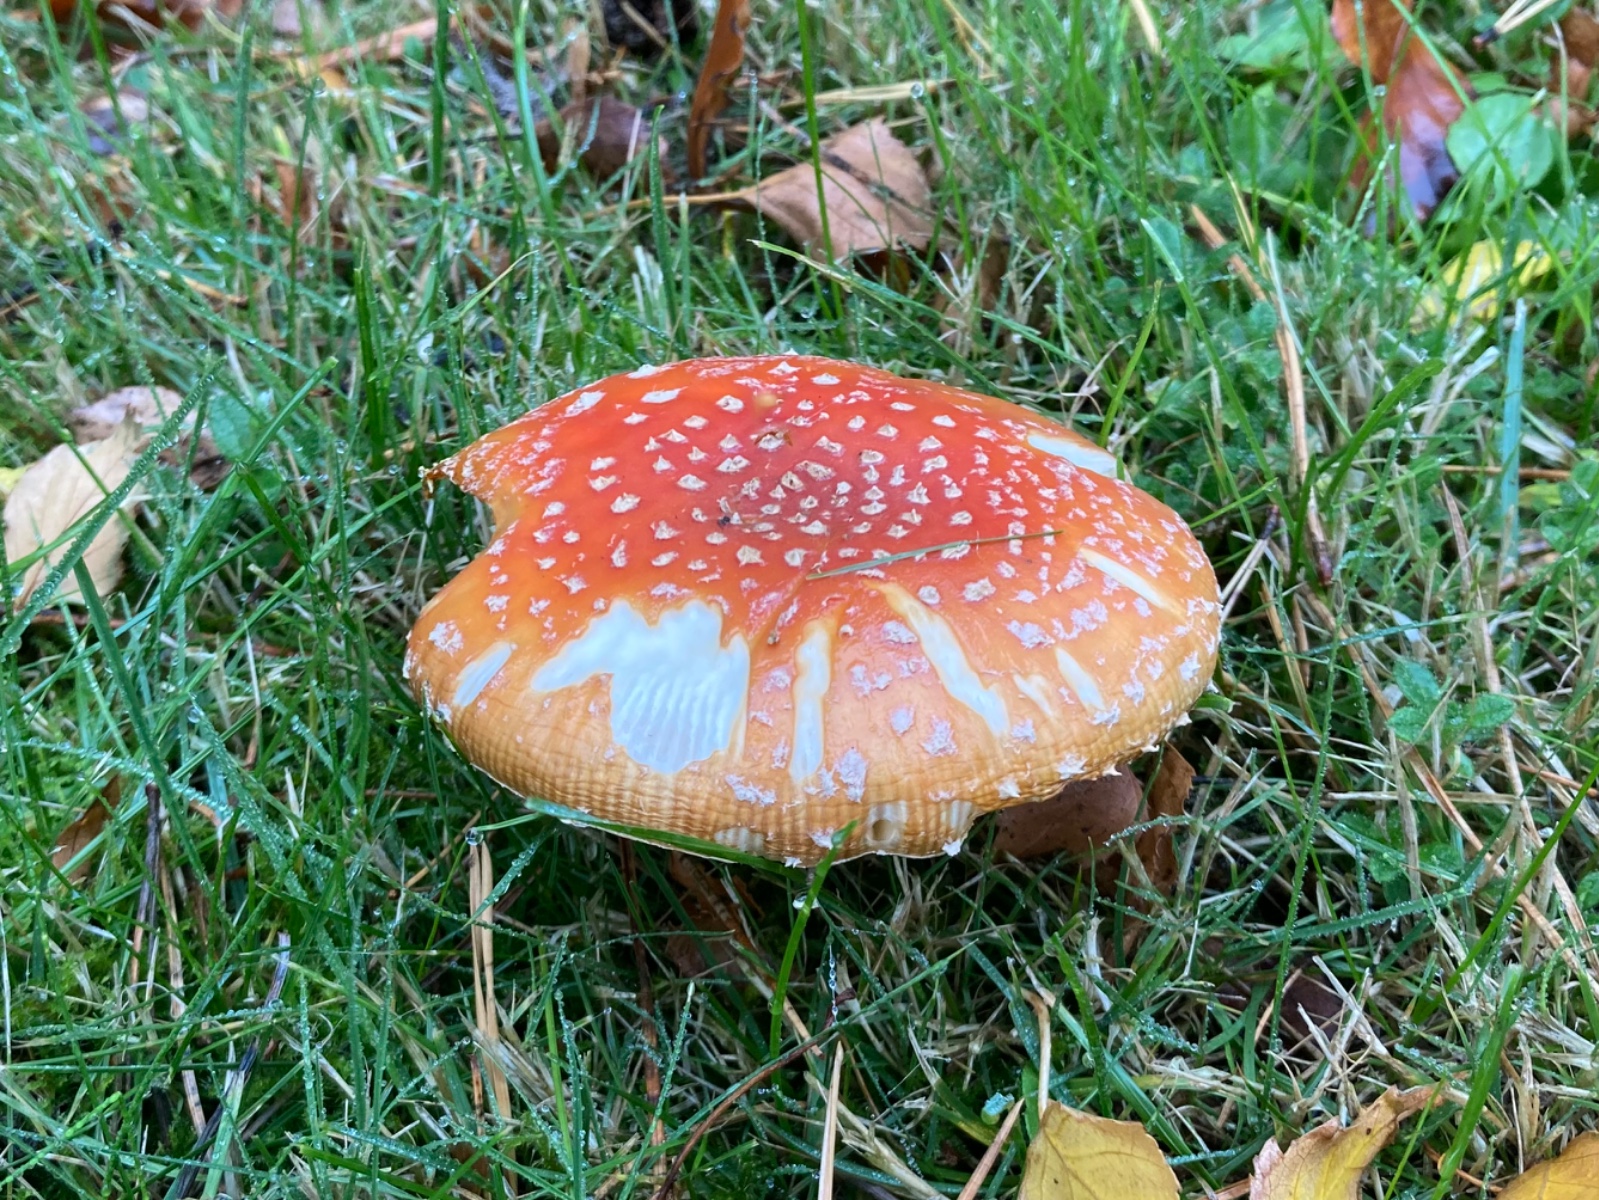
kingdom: Fungi
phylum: Basidiomycota
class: Agaricomycetes
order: Agaricales
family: Amanitaceae
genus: Amanita
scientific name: Amanita muscaria
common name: rød fluesvamp
